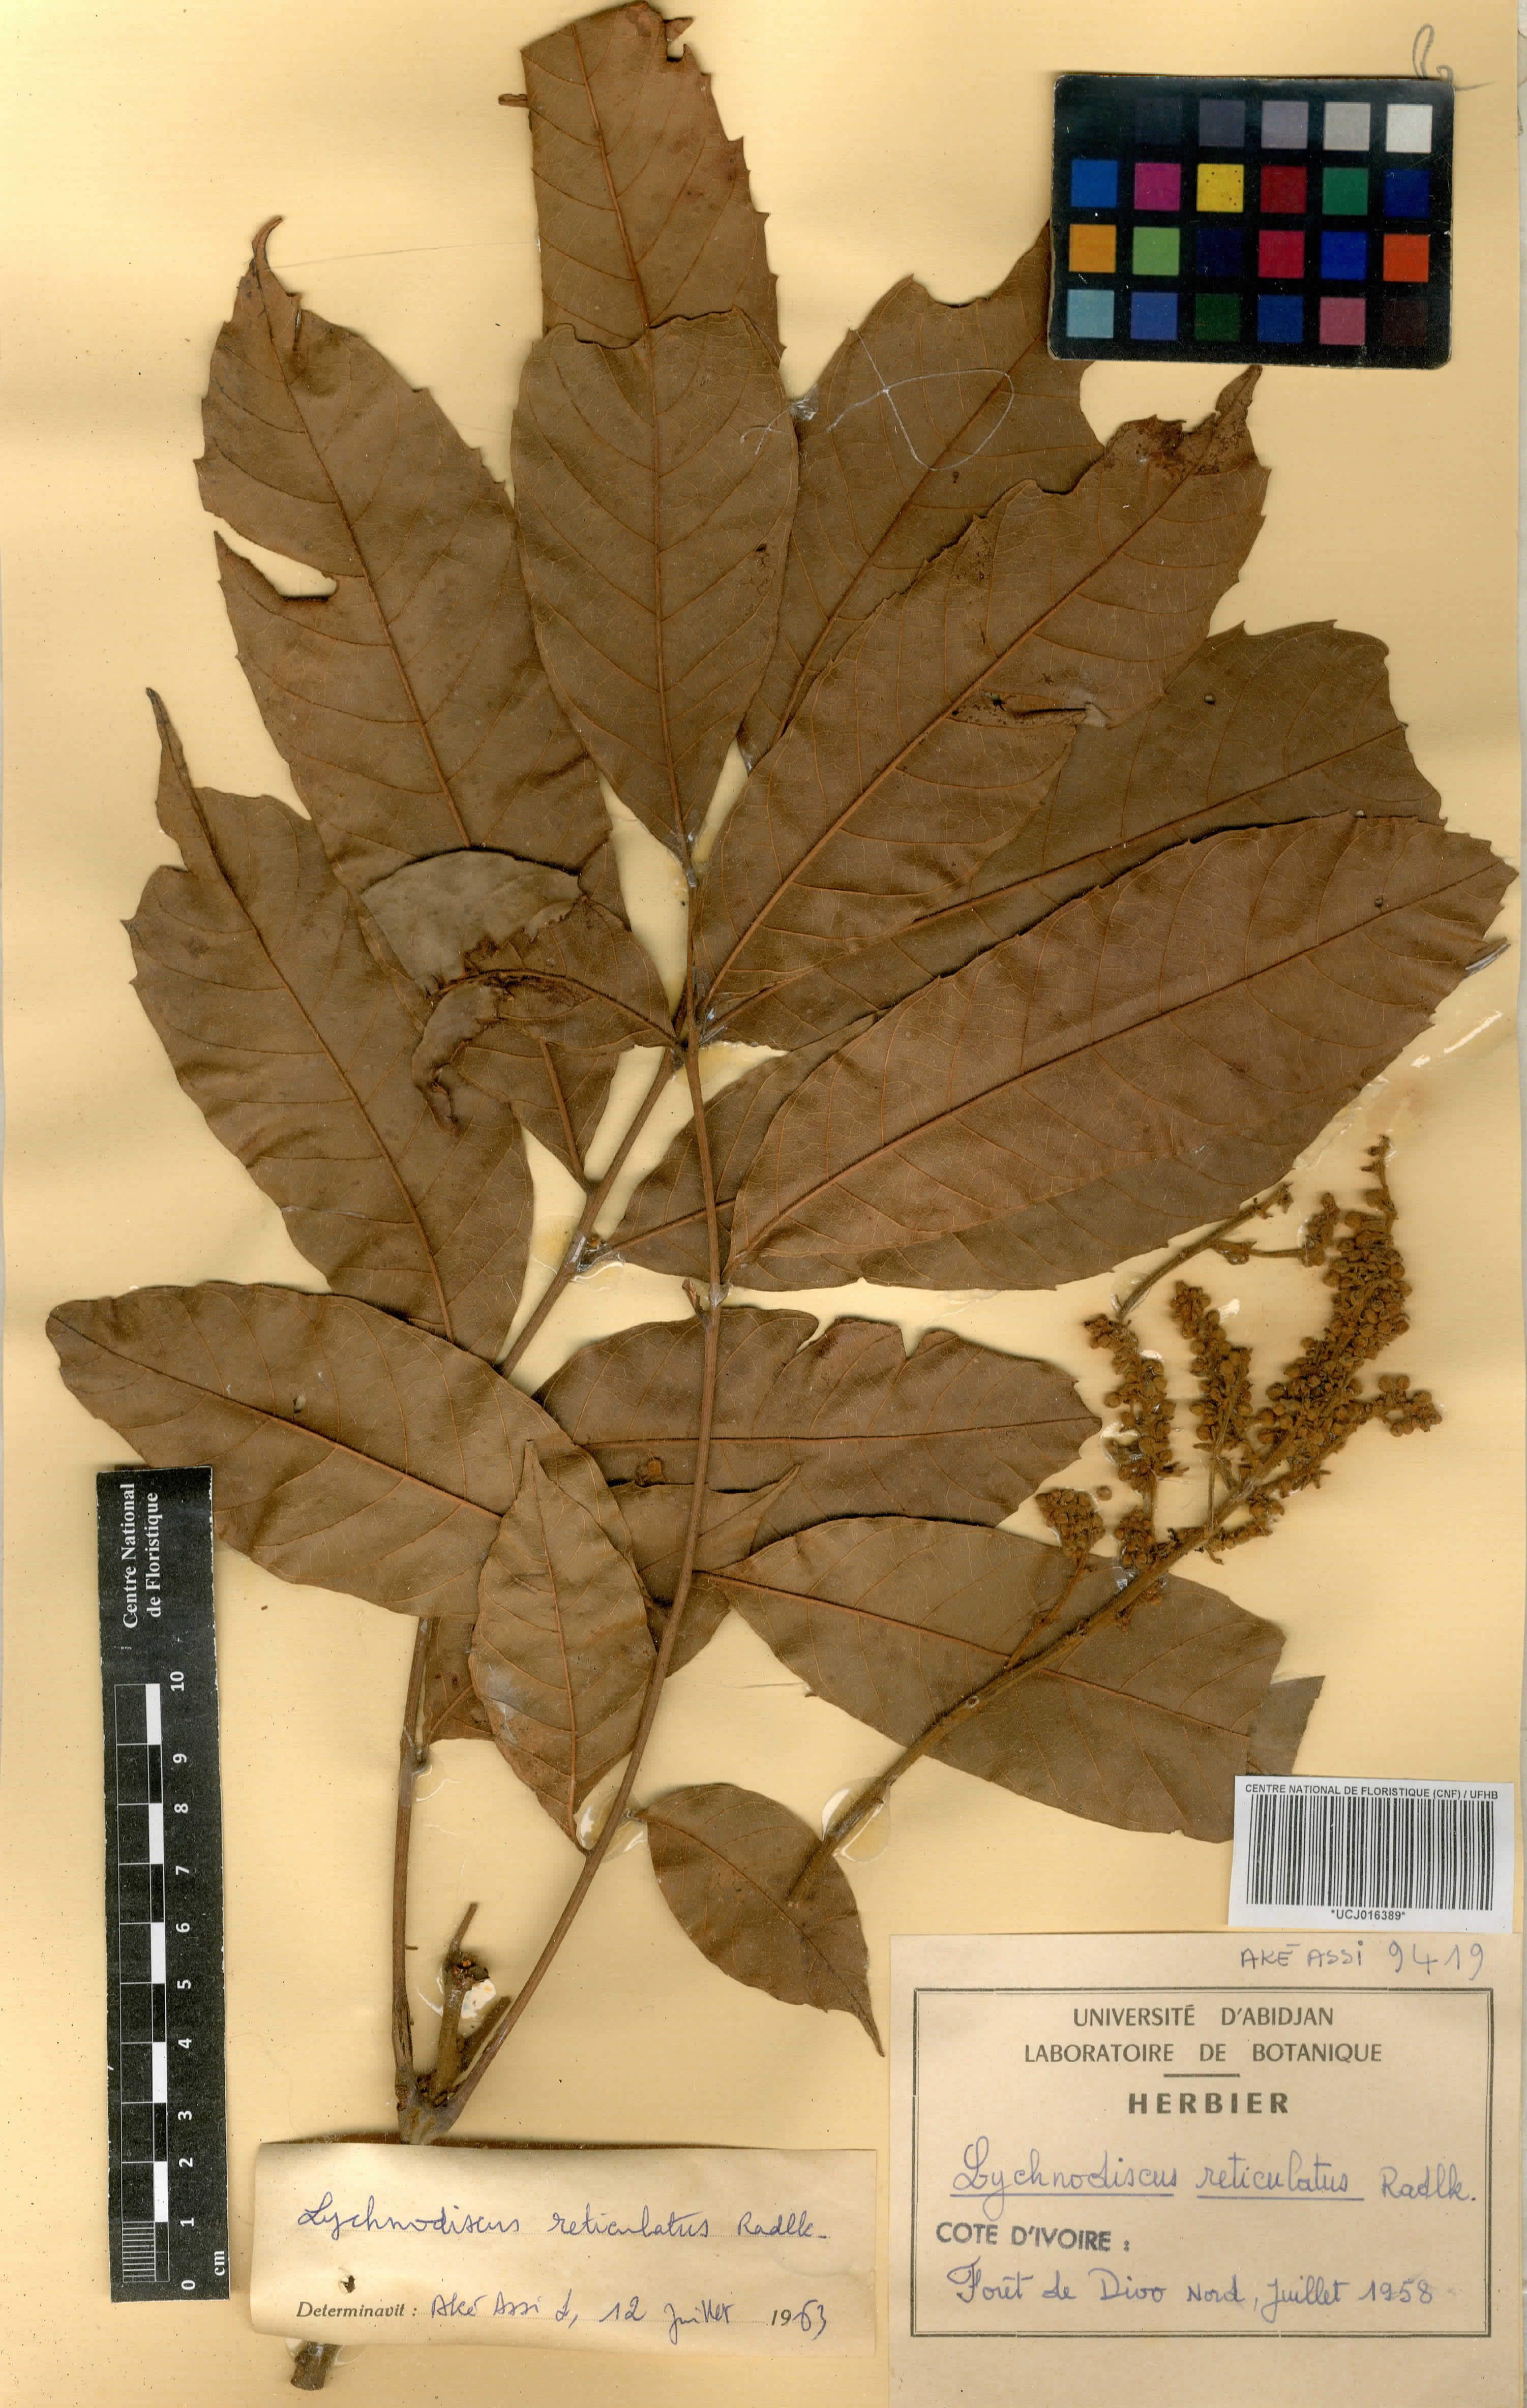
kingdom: Plantae
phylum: Tracheophyta
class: Magnoliopsida
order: Sapindales
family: Sapindaceae
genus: Lychnodiscus
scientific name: Lychnodiscus reticulatus
